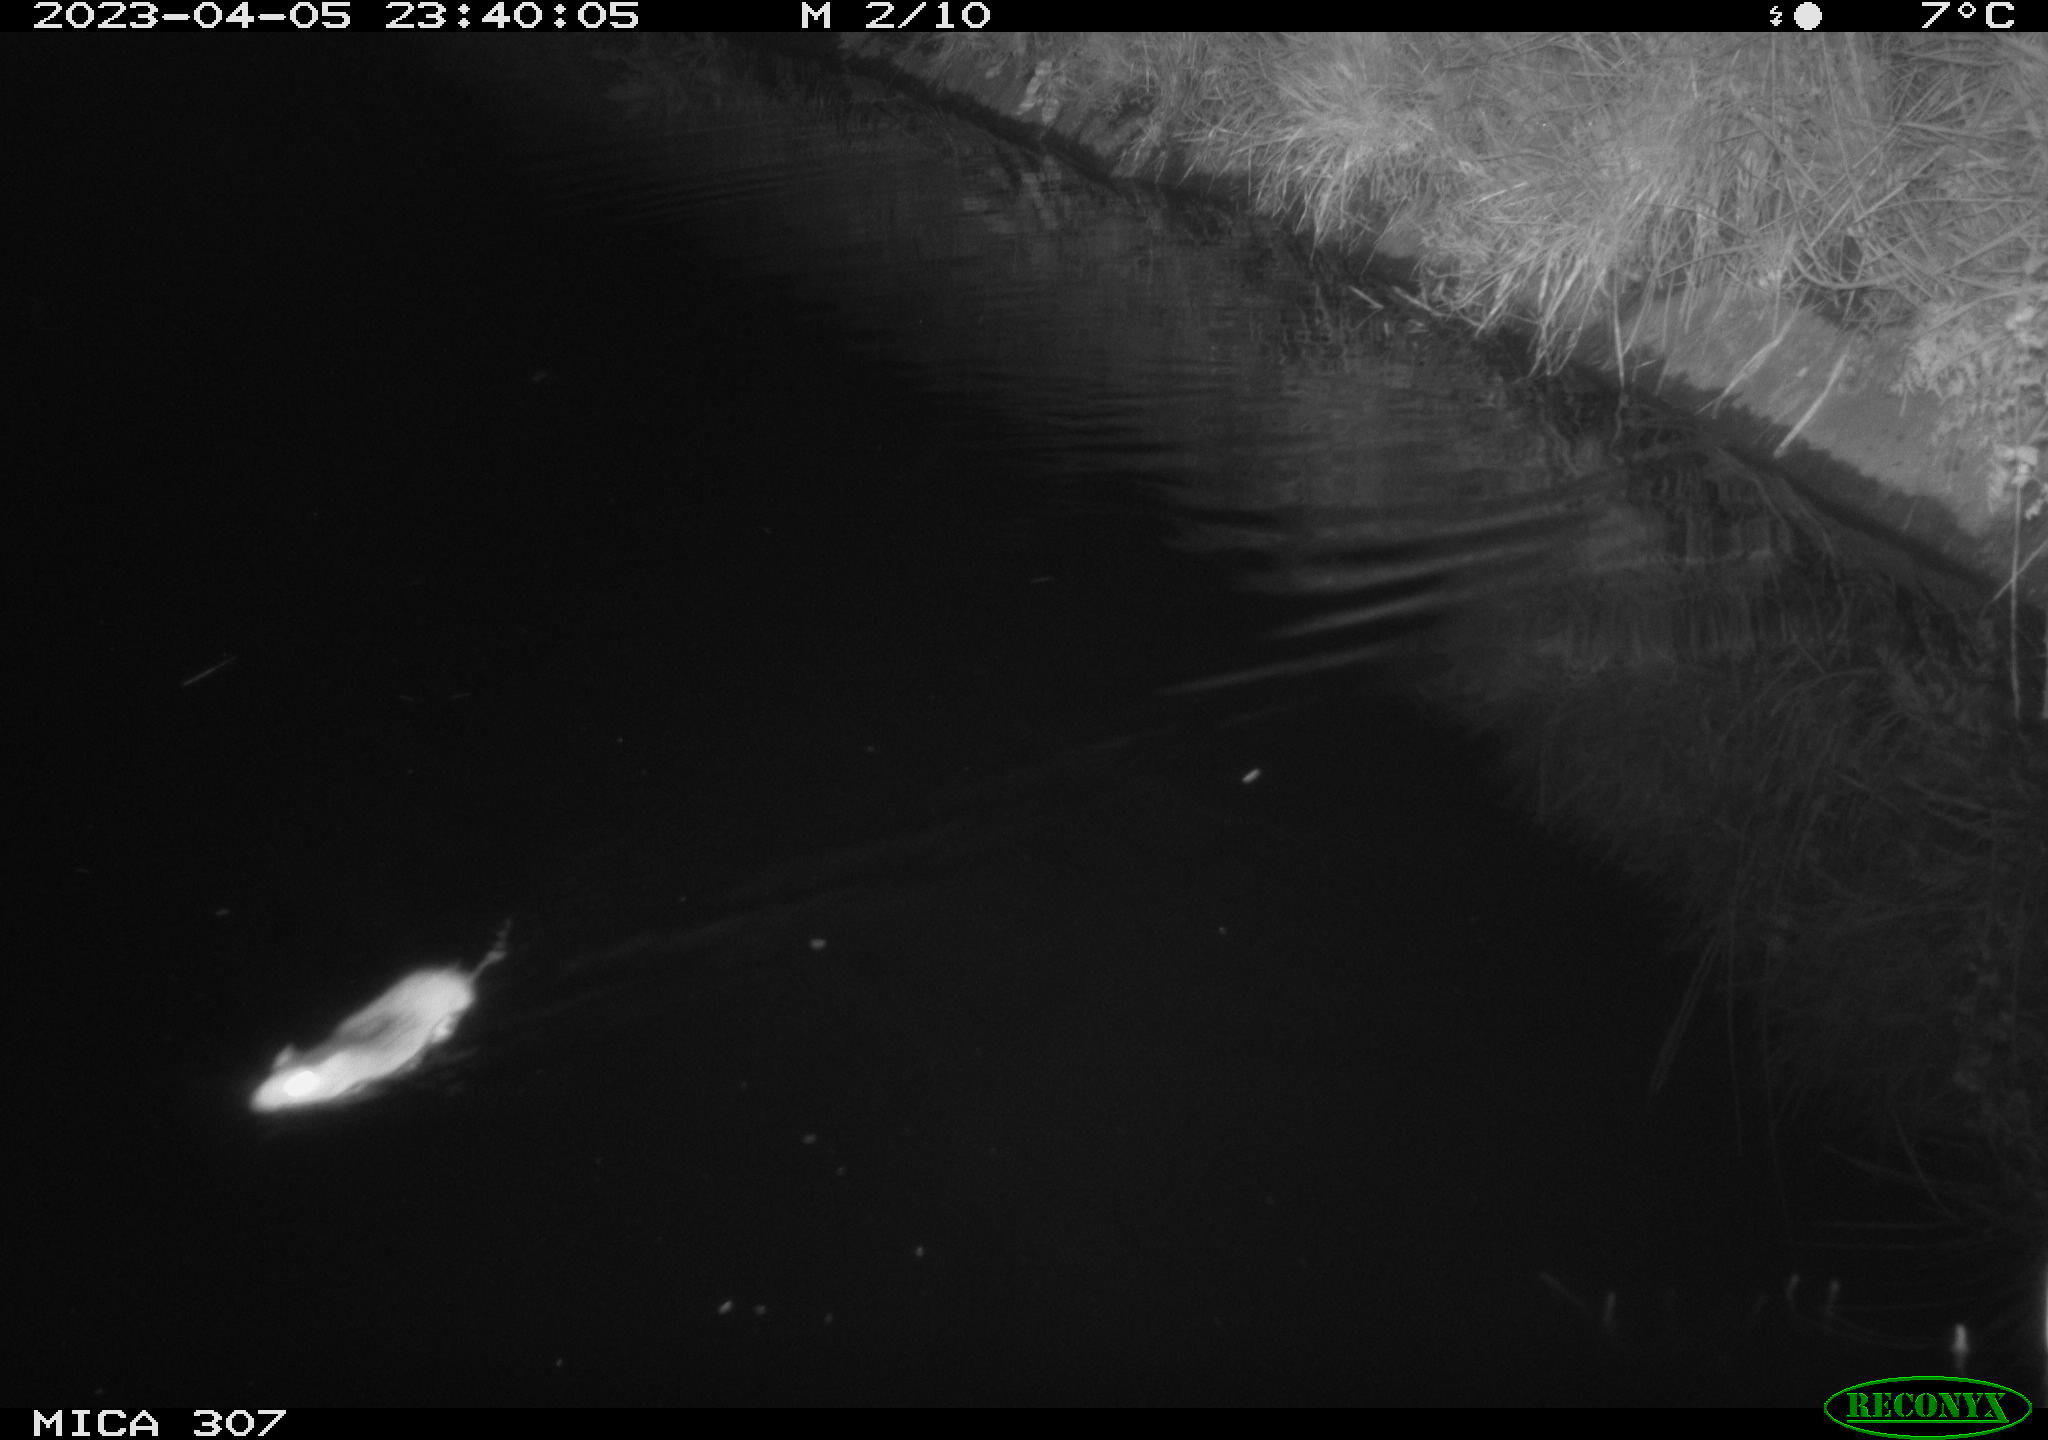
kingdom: Animalia
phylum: Chordata
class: Mammalia
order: Rodentia
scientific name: Rodentia
